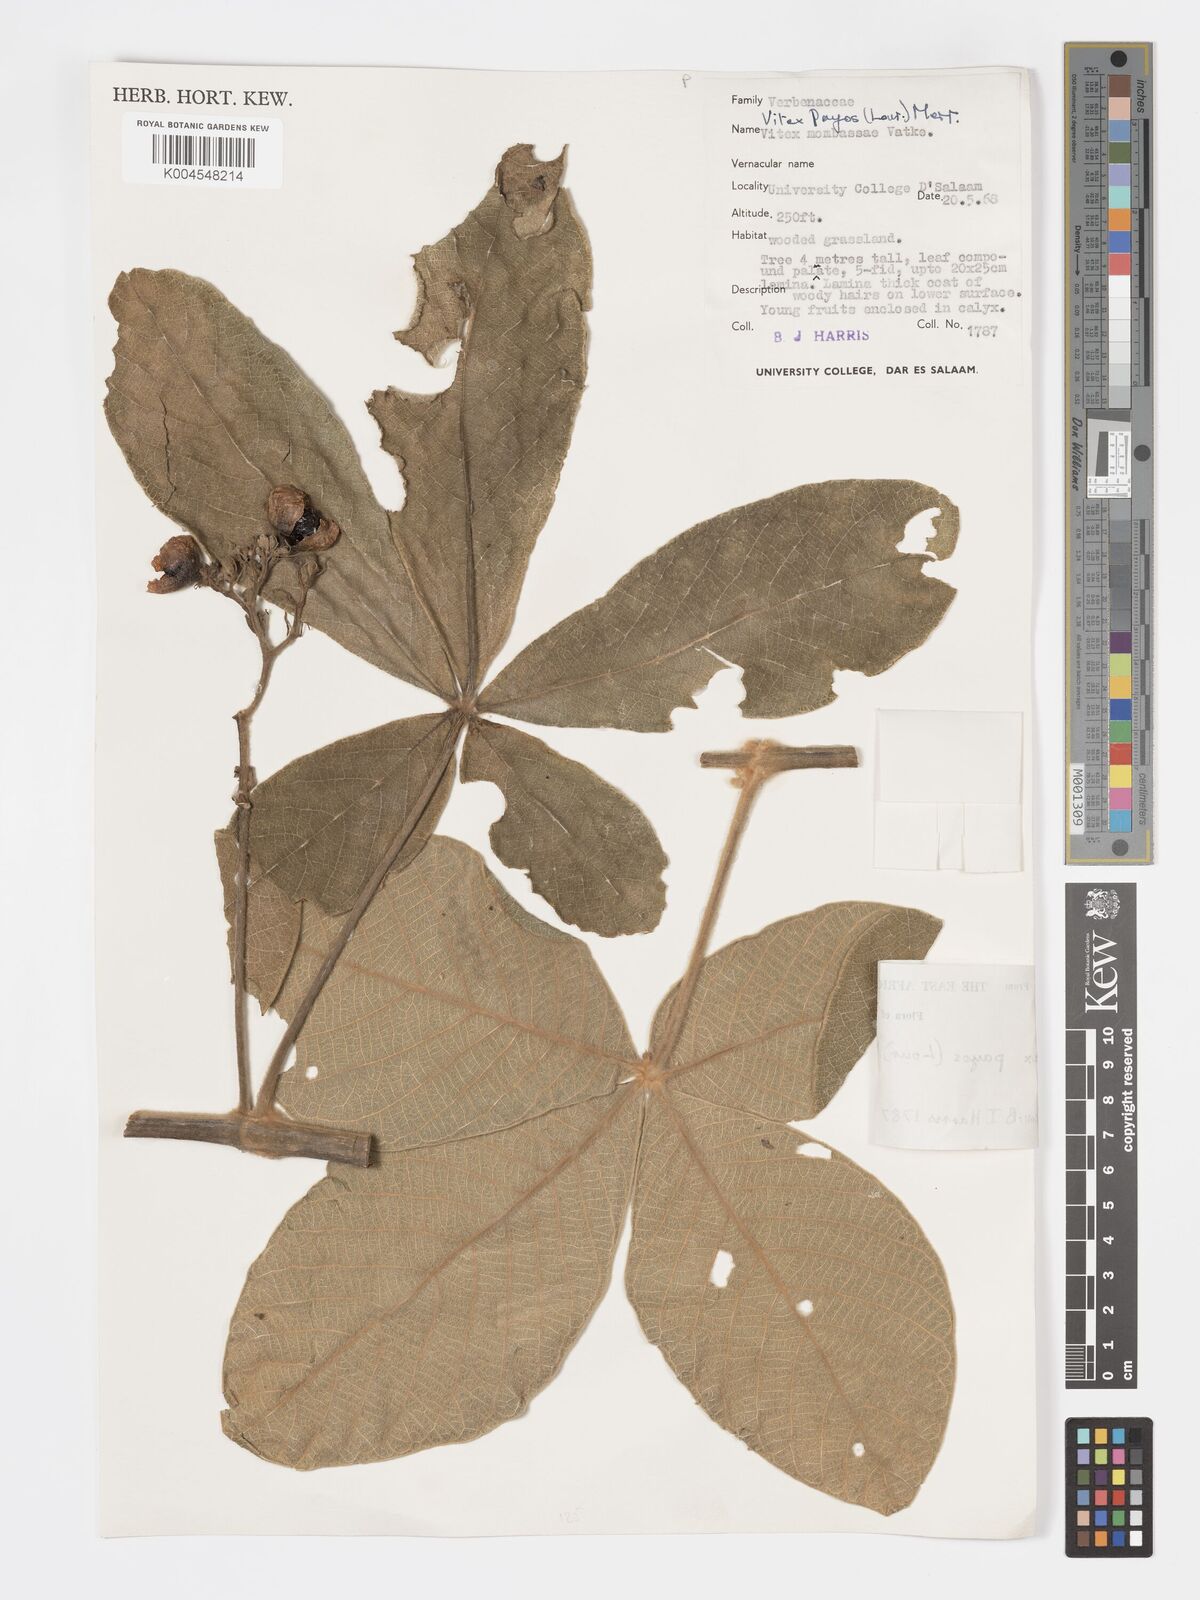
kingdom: Plantae
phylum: Tracheophyta
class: Magnoliopsida
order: Lamiales
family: Lamiaceae
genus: Vitex
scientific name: Vitex payos
